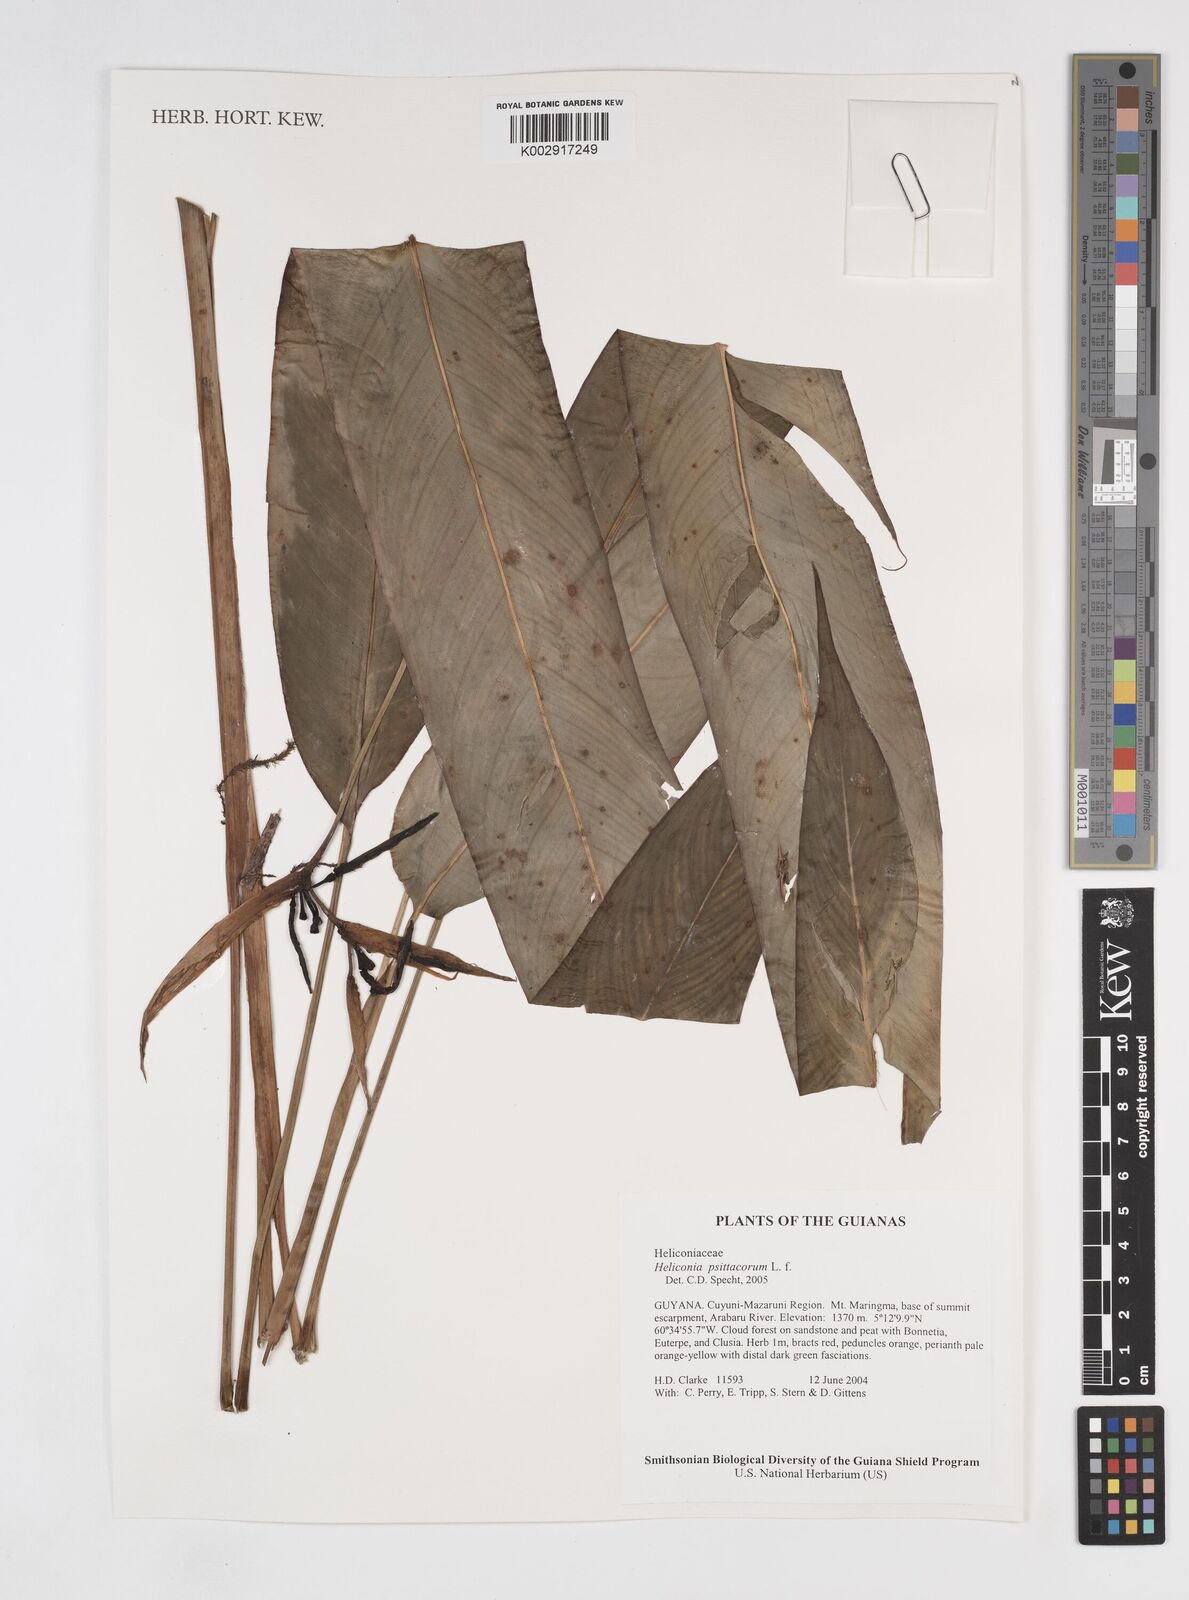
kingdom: Plantae
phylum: Tracheophyta
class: Liliopsida
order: Zingiberales
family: Heliconiaceae
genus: Heliconia
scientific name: Heliconia psittacorum
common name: Parrot's-flower
